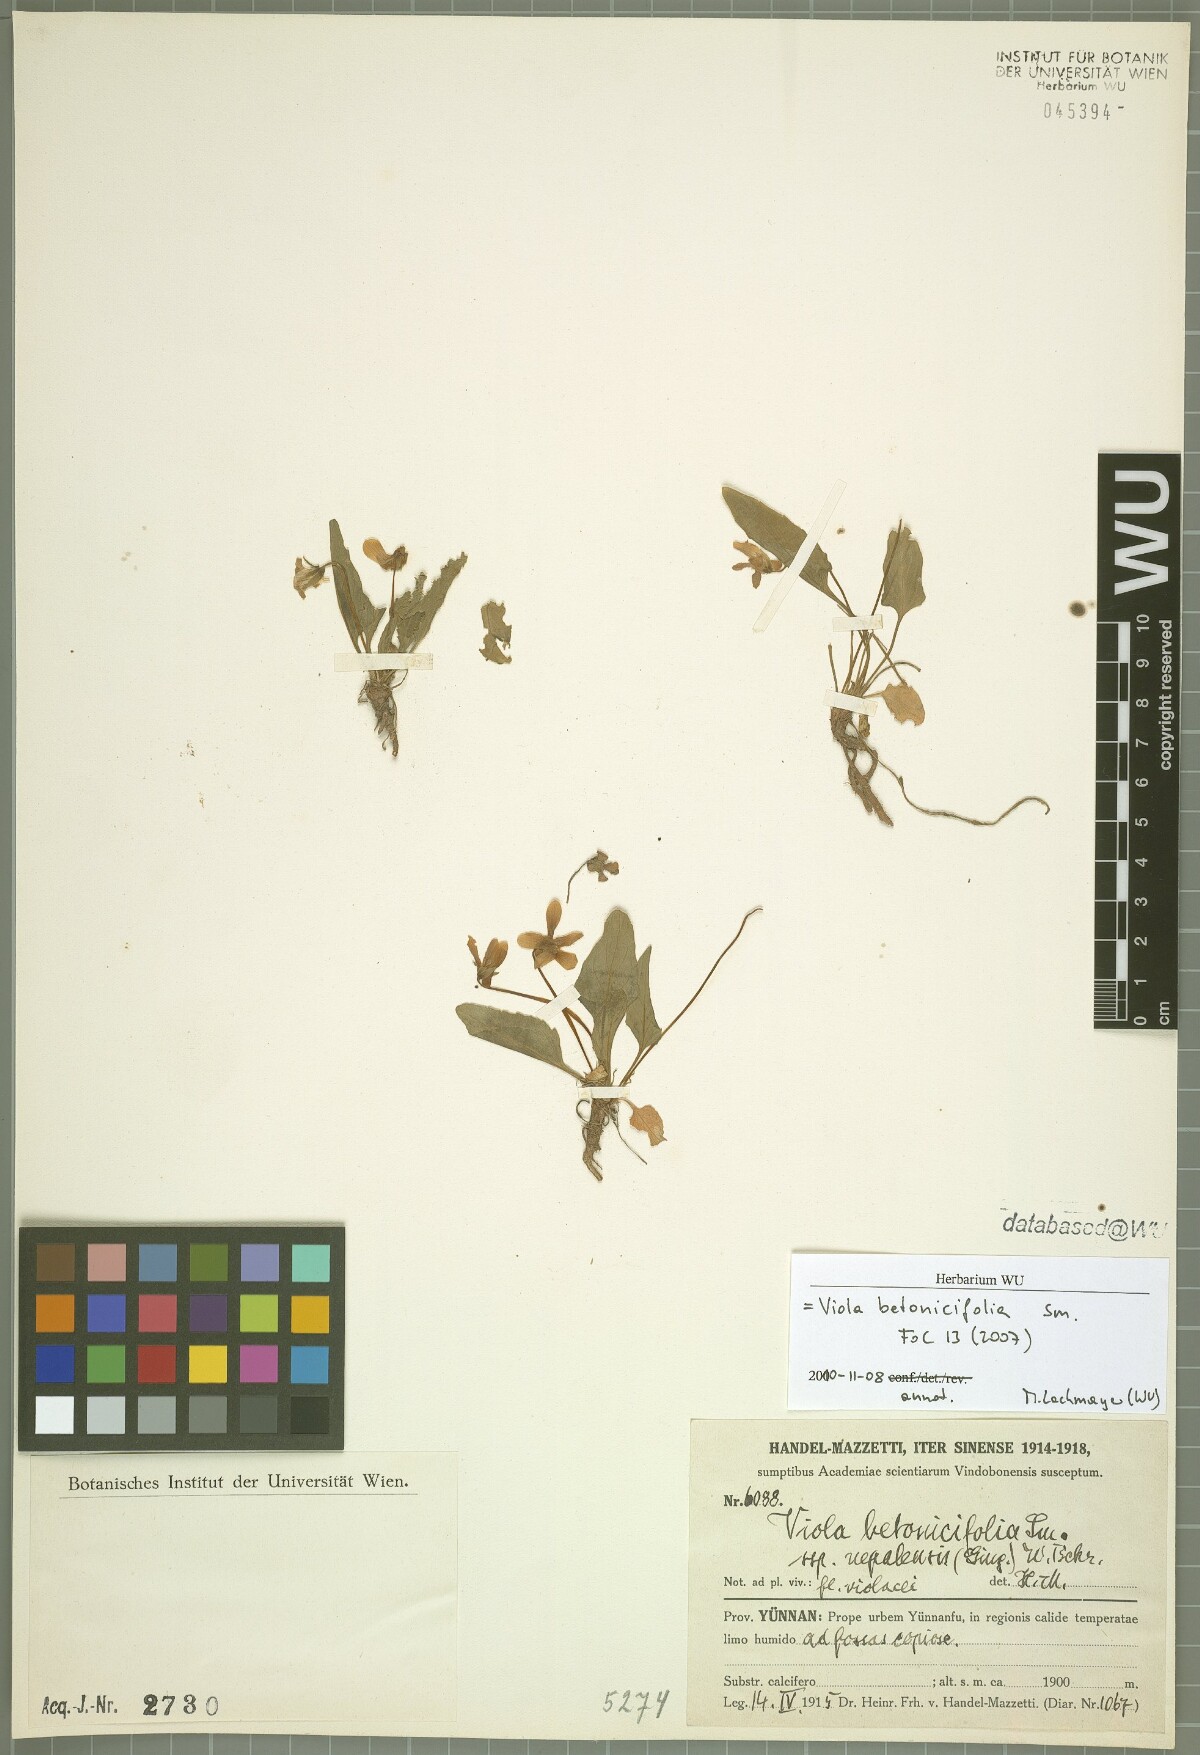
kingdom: Plantae
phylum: Tracheophyta
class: Magnoliopsida
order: Malpighiales
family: Violaceae
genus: Viola
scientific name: Viola betonicifolia
